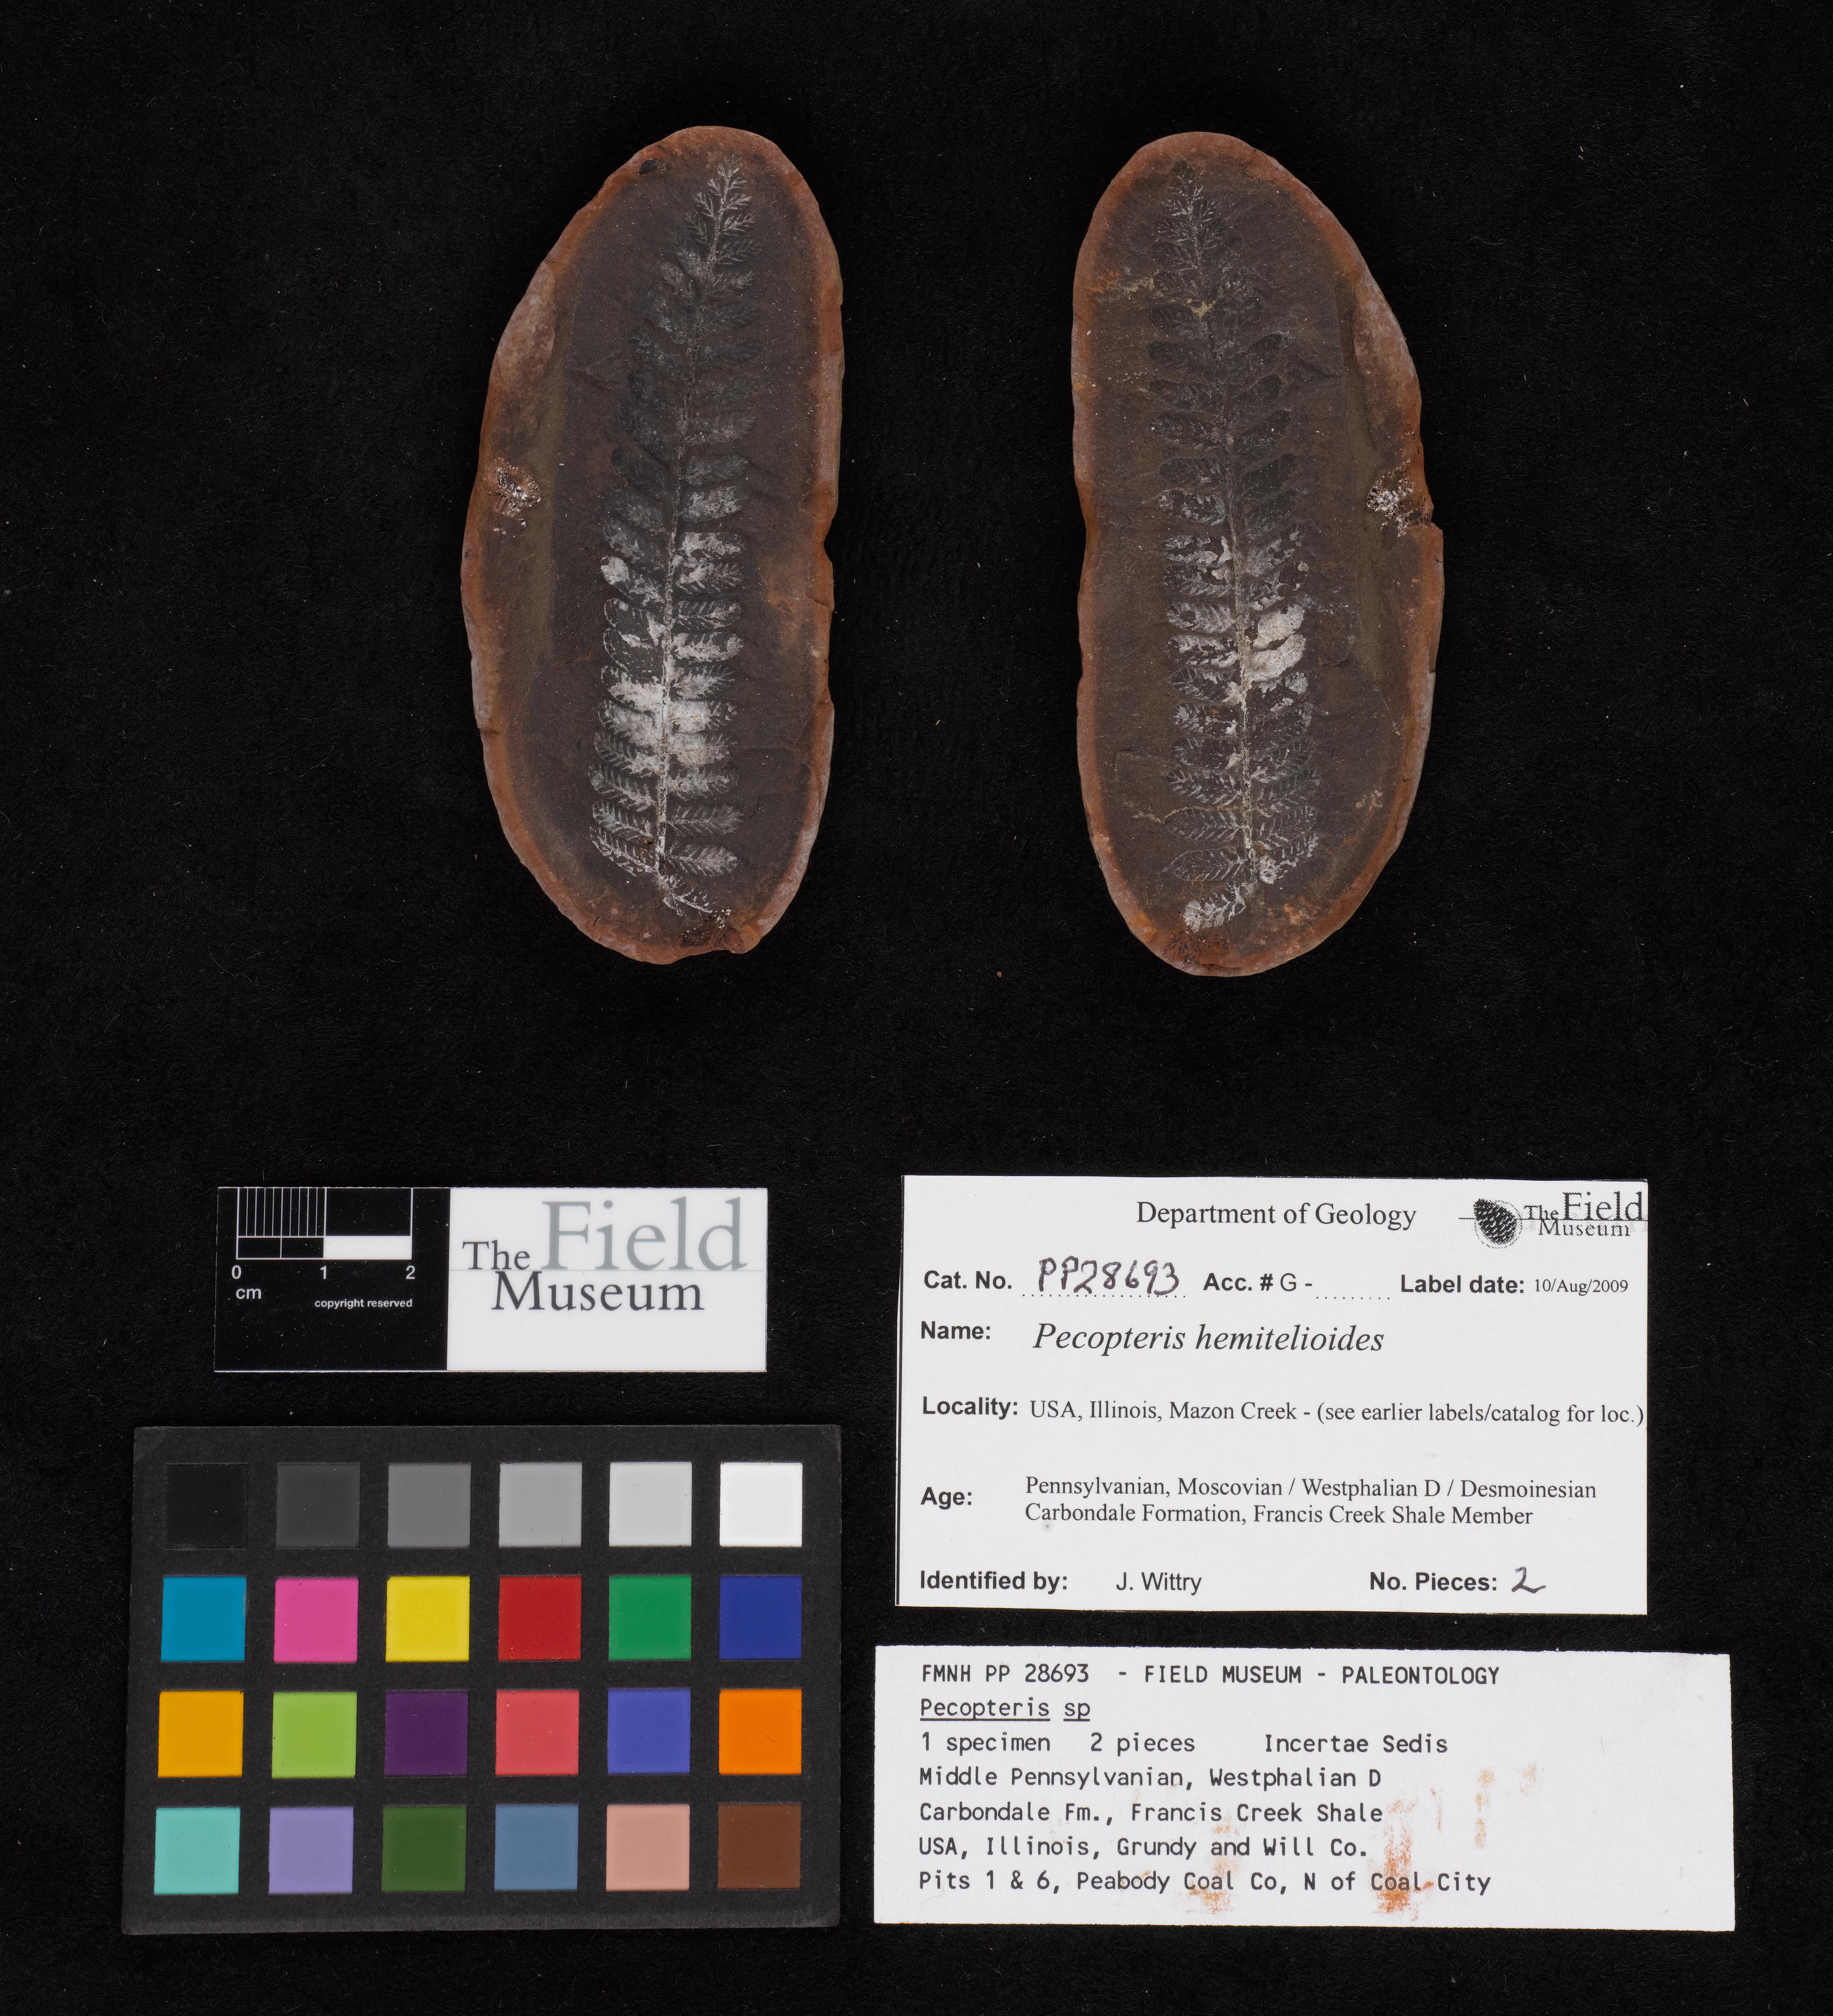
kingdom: Plantae
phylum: Tracheophyta
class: Polypodiopsida
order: Marattiales
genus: Cyathocarpus
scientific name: Cyathocarpus
